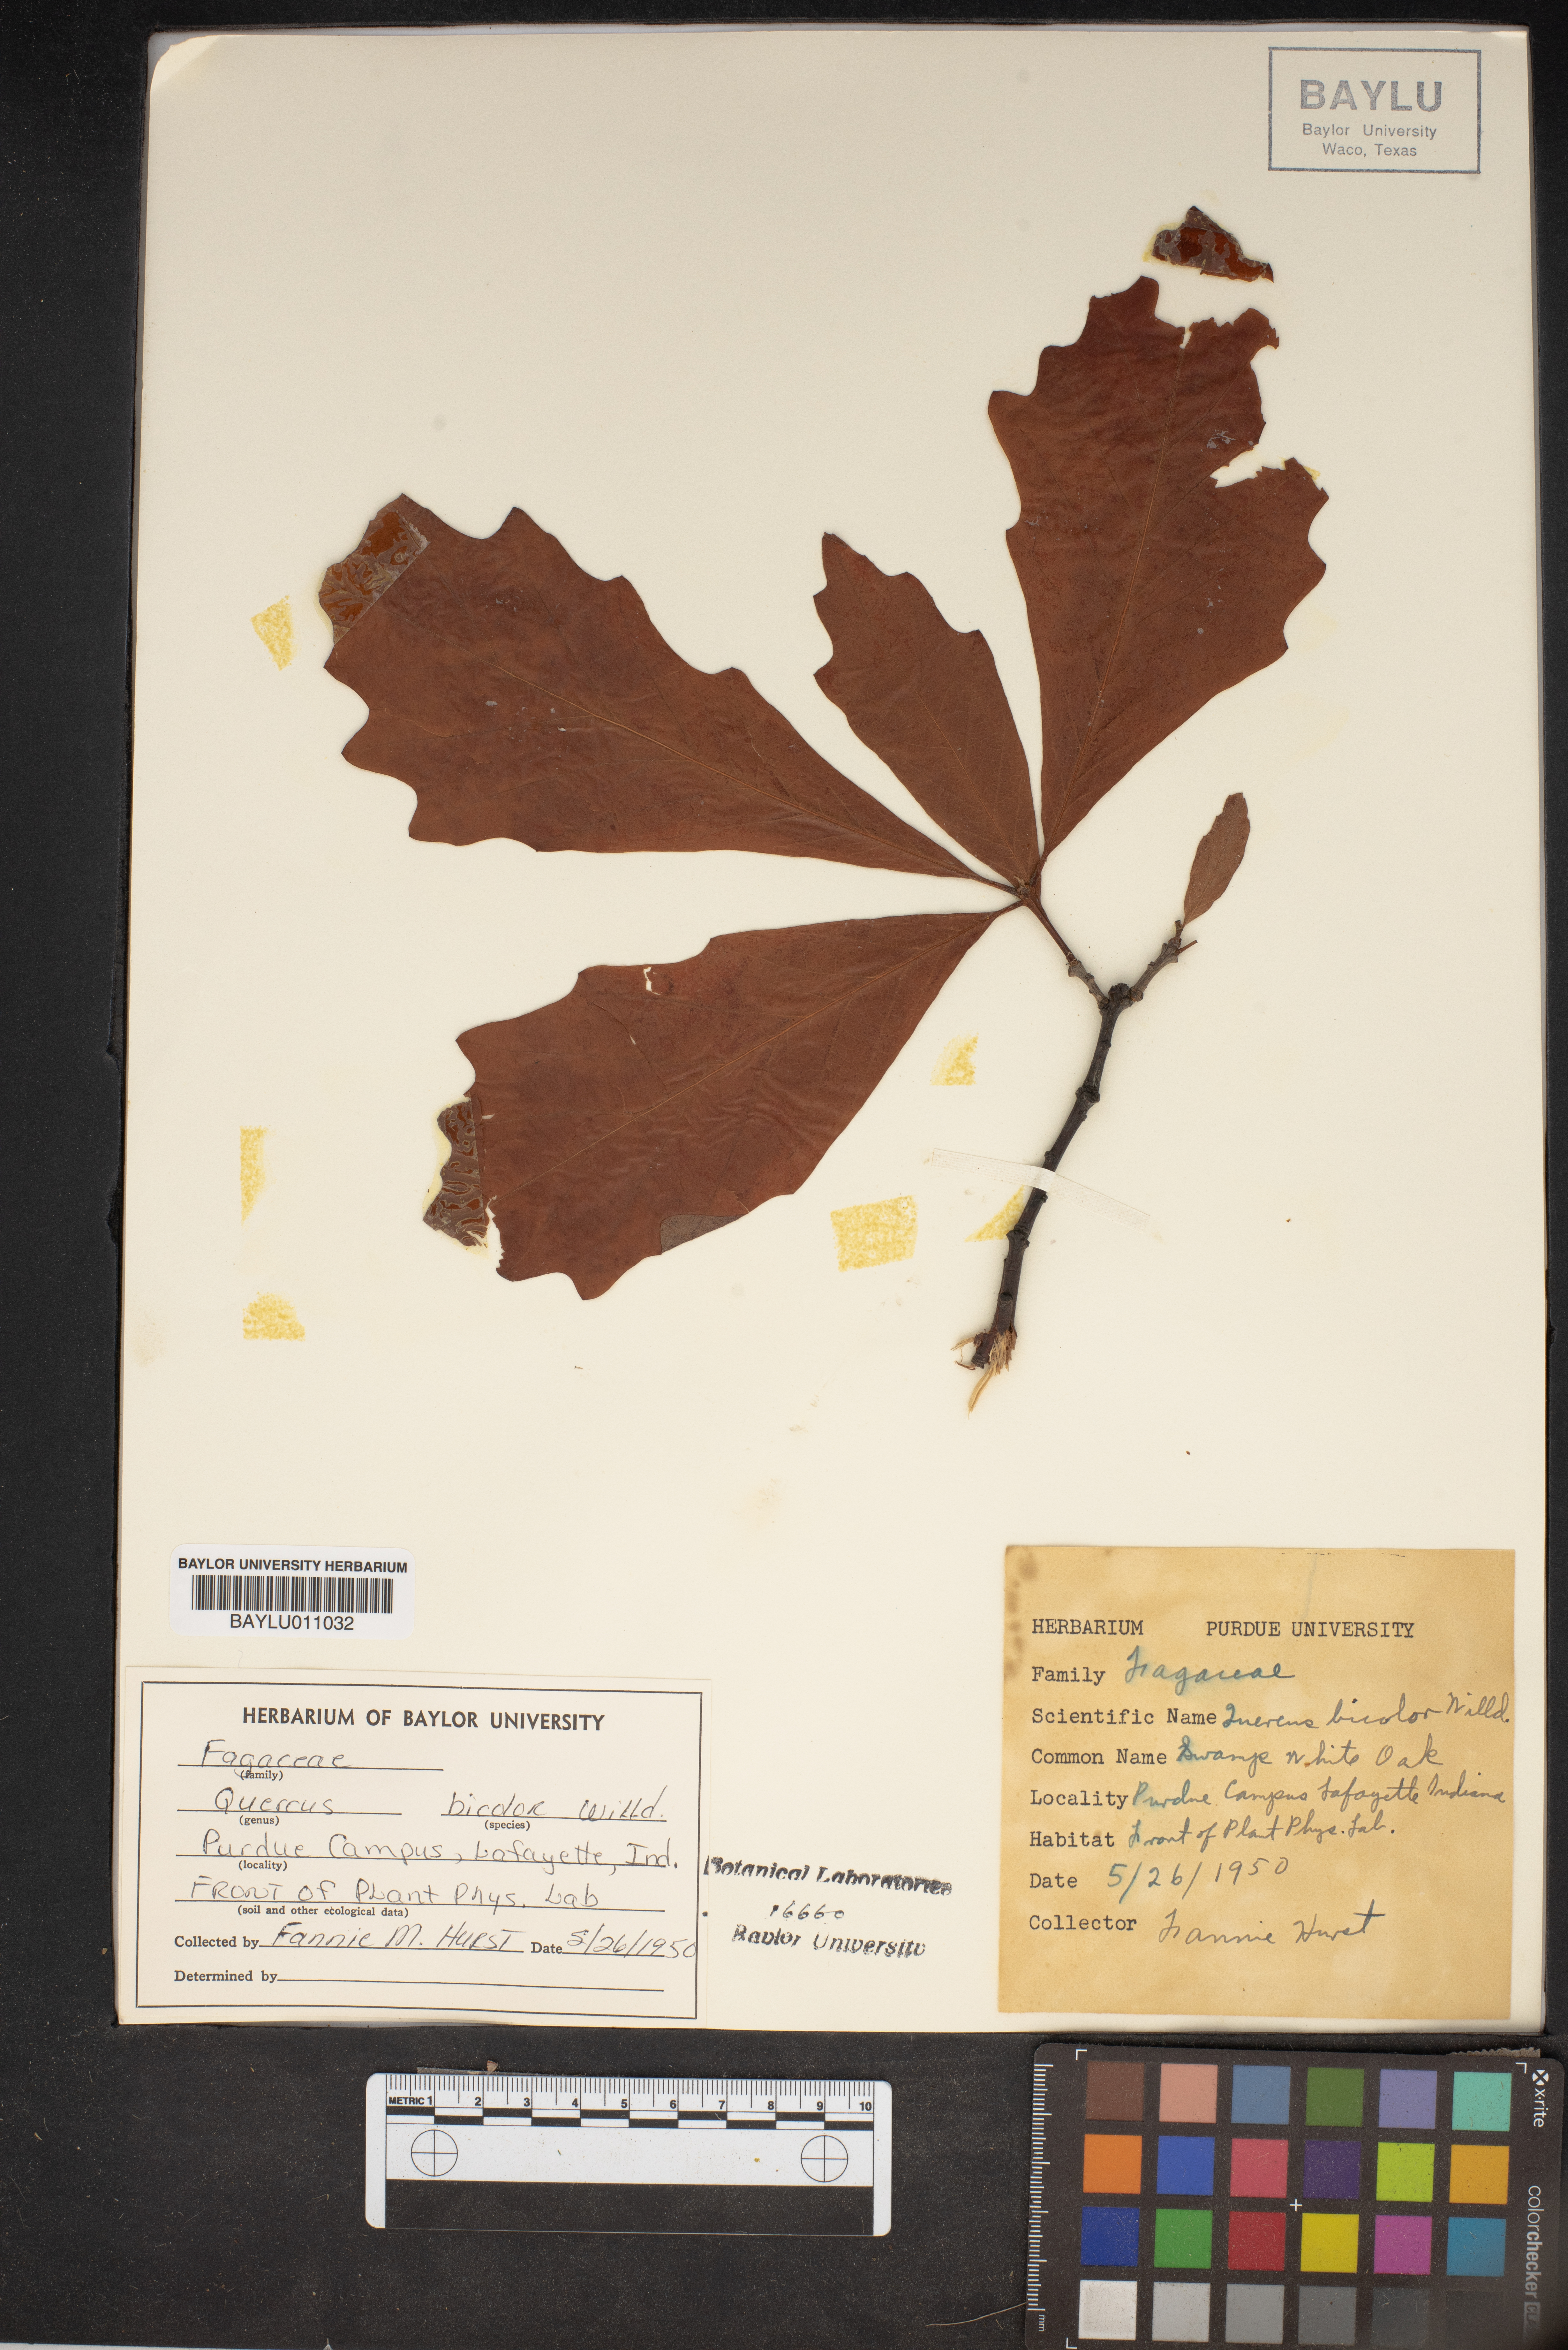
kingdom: Plantae
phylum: Tracheophyta
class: Magnoliopsida
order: Fagales
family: Fagaceae
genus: Quercus
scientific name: Quercus bicolor
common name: Swamp white oak
